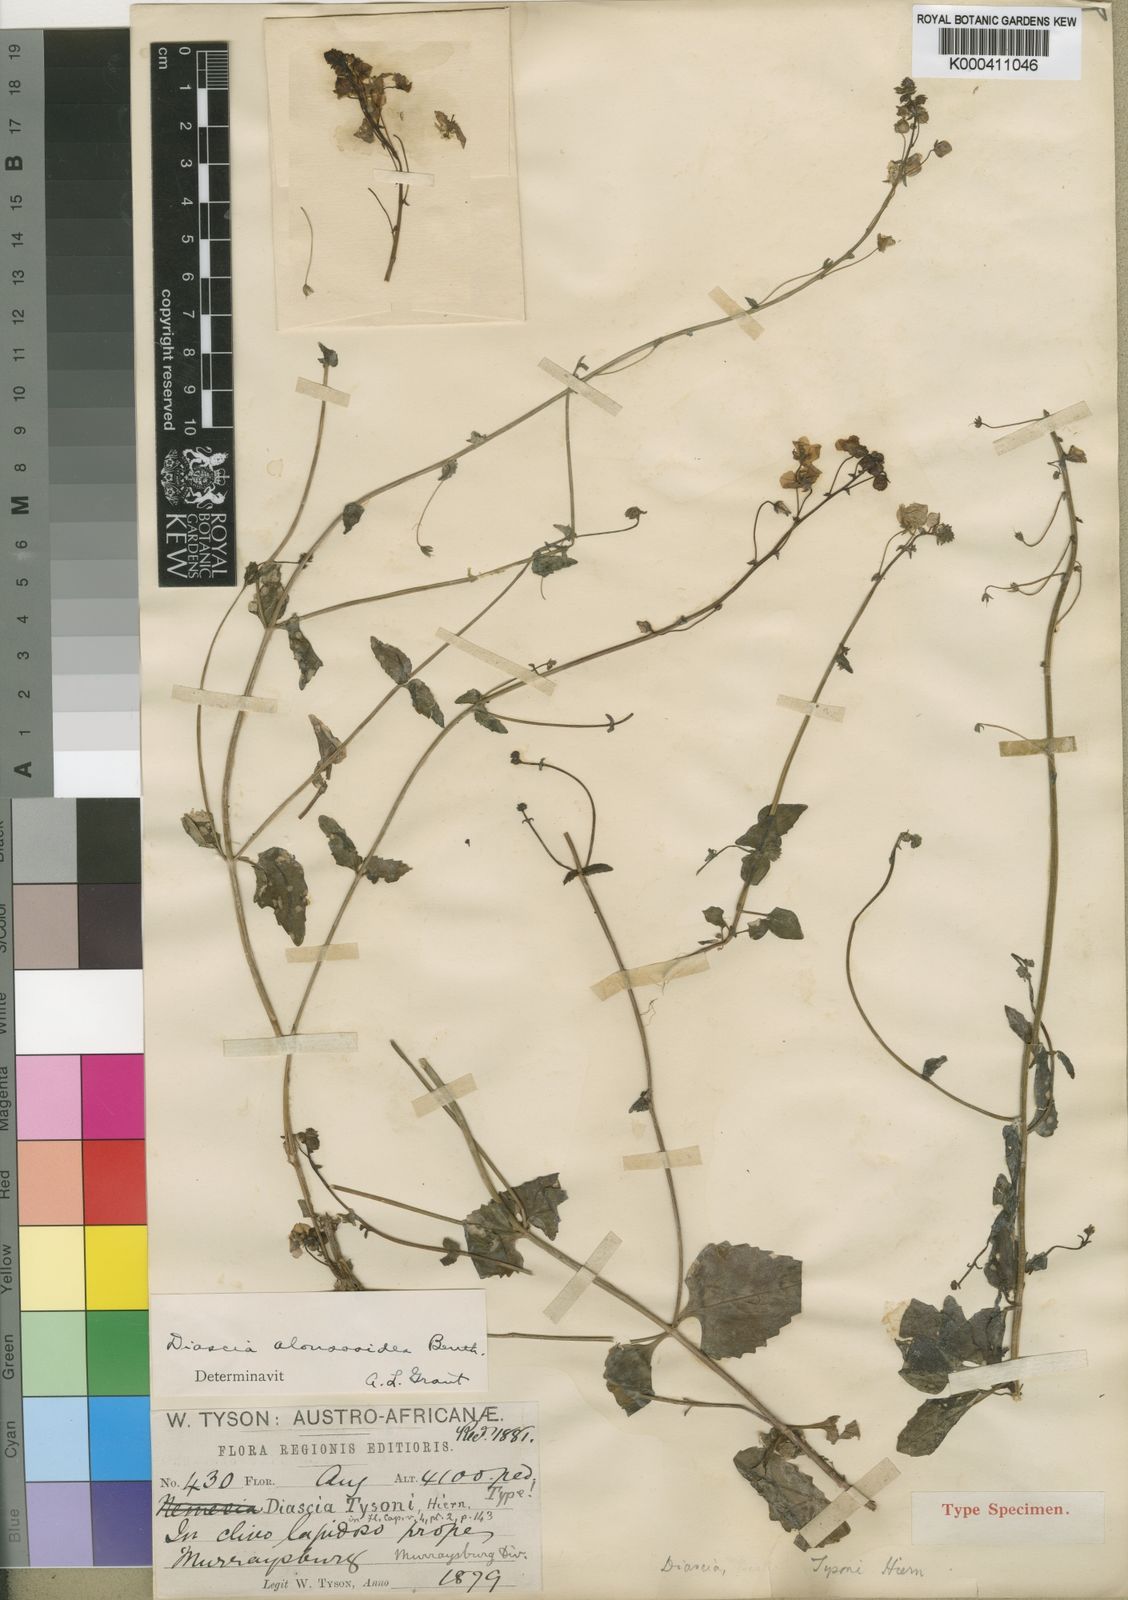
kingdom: Plantae
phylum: Tracheophyta
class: Magnoliopsida
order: Lamiales
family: Scrophulariaceae
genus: Diascia
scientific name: Diascia alonsooides
